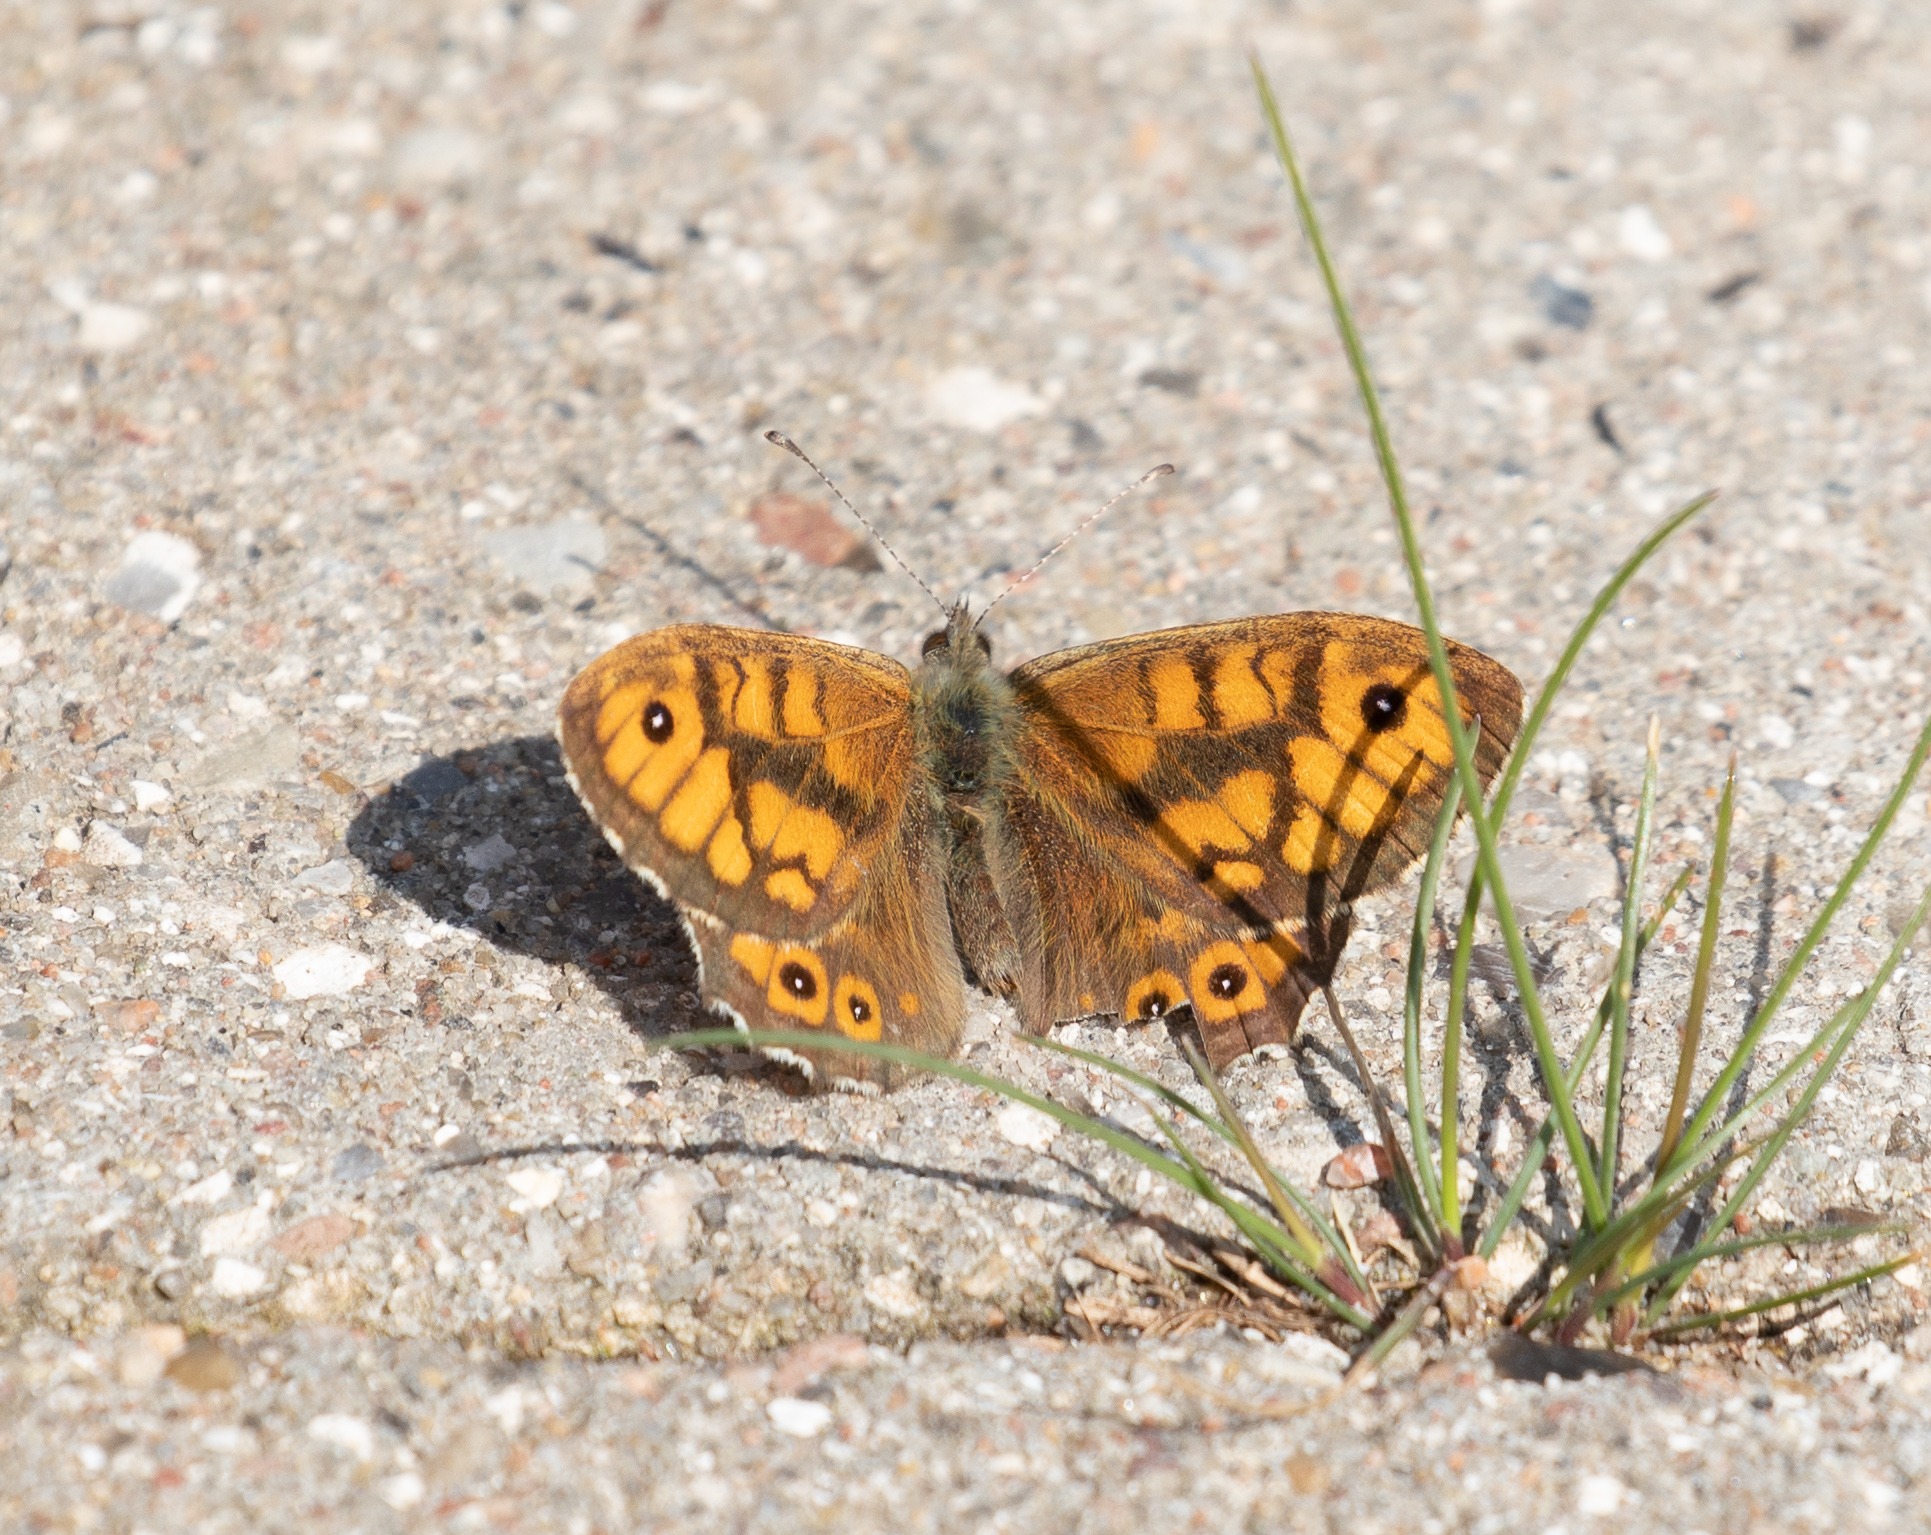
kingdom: Animalia
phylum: Arthropoda
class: Insecta
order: Lepidoptera
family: Nymphalidae
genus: Pararge
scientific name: Pararge Lasiommata megera
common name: Vejrandøje
